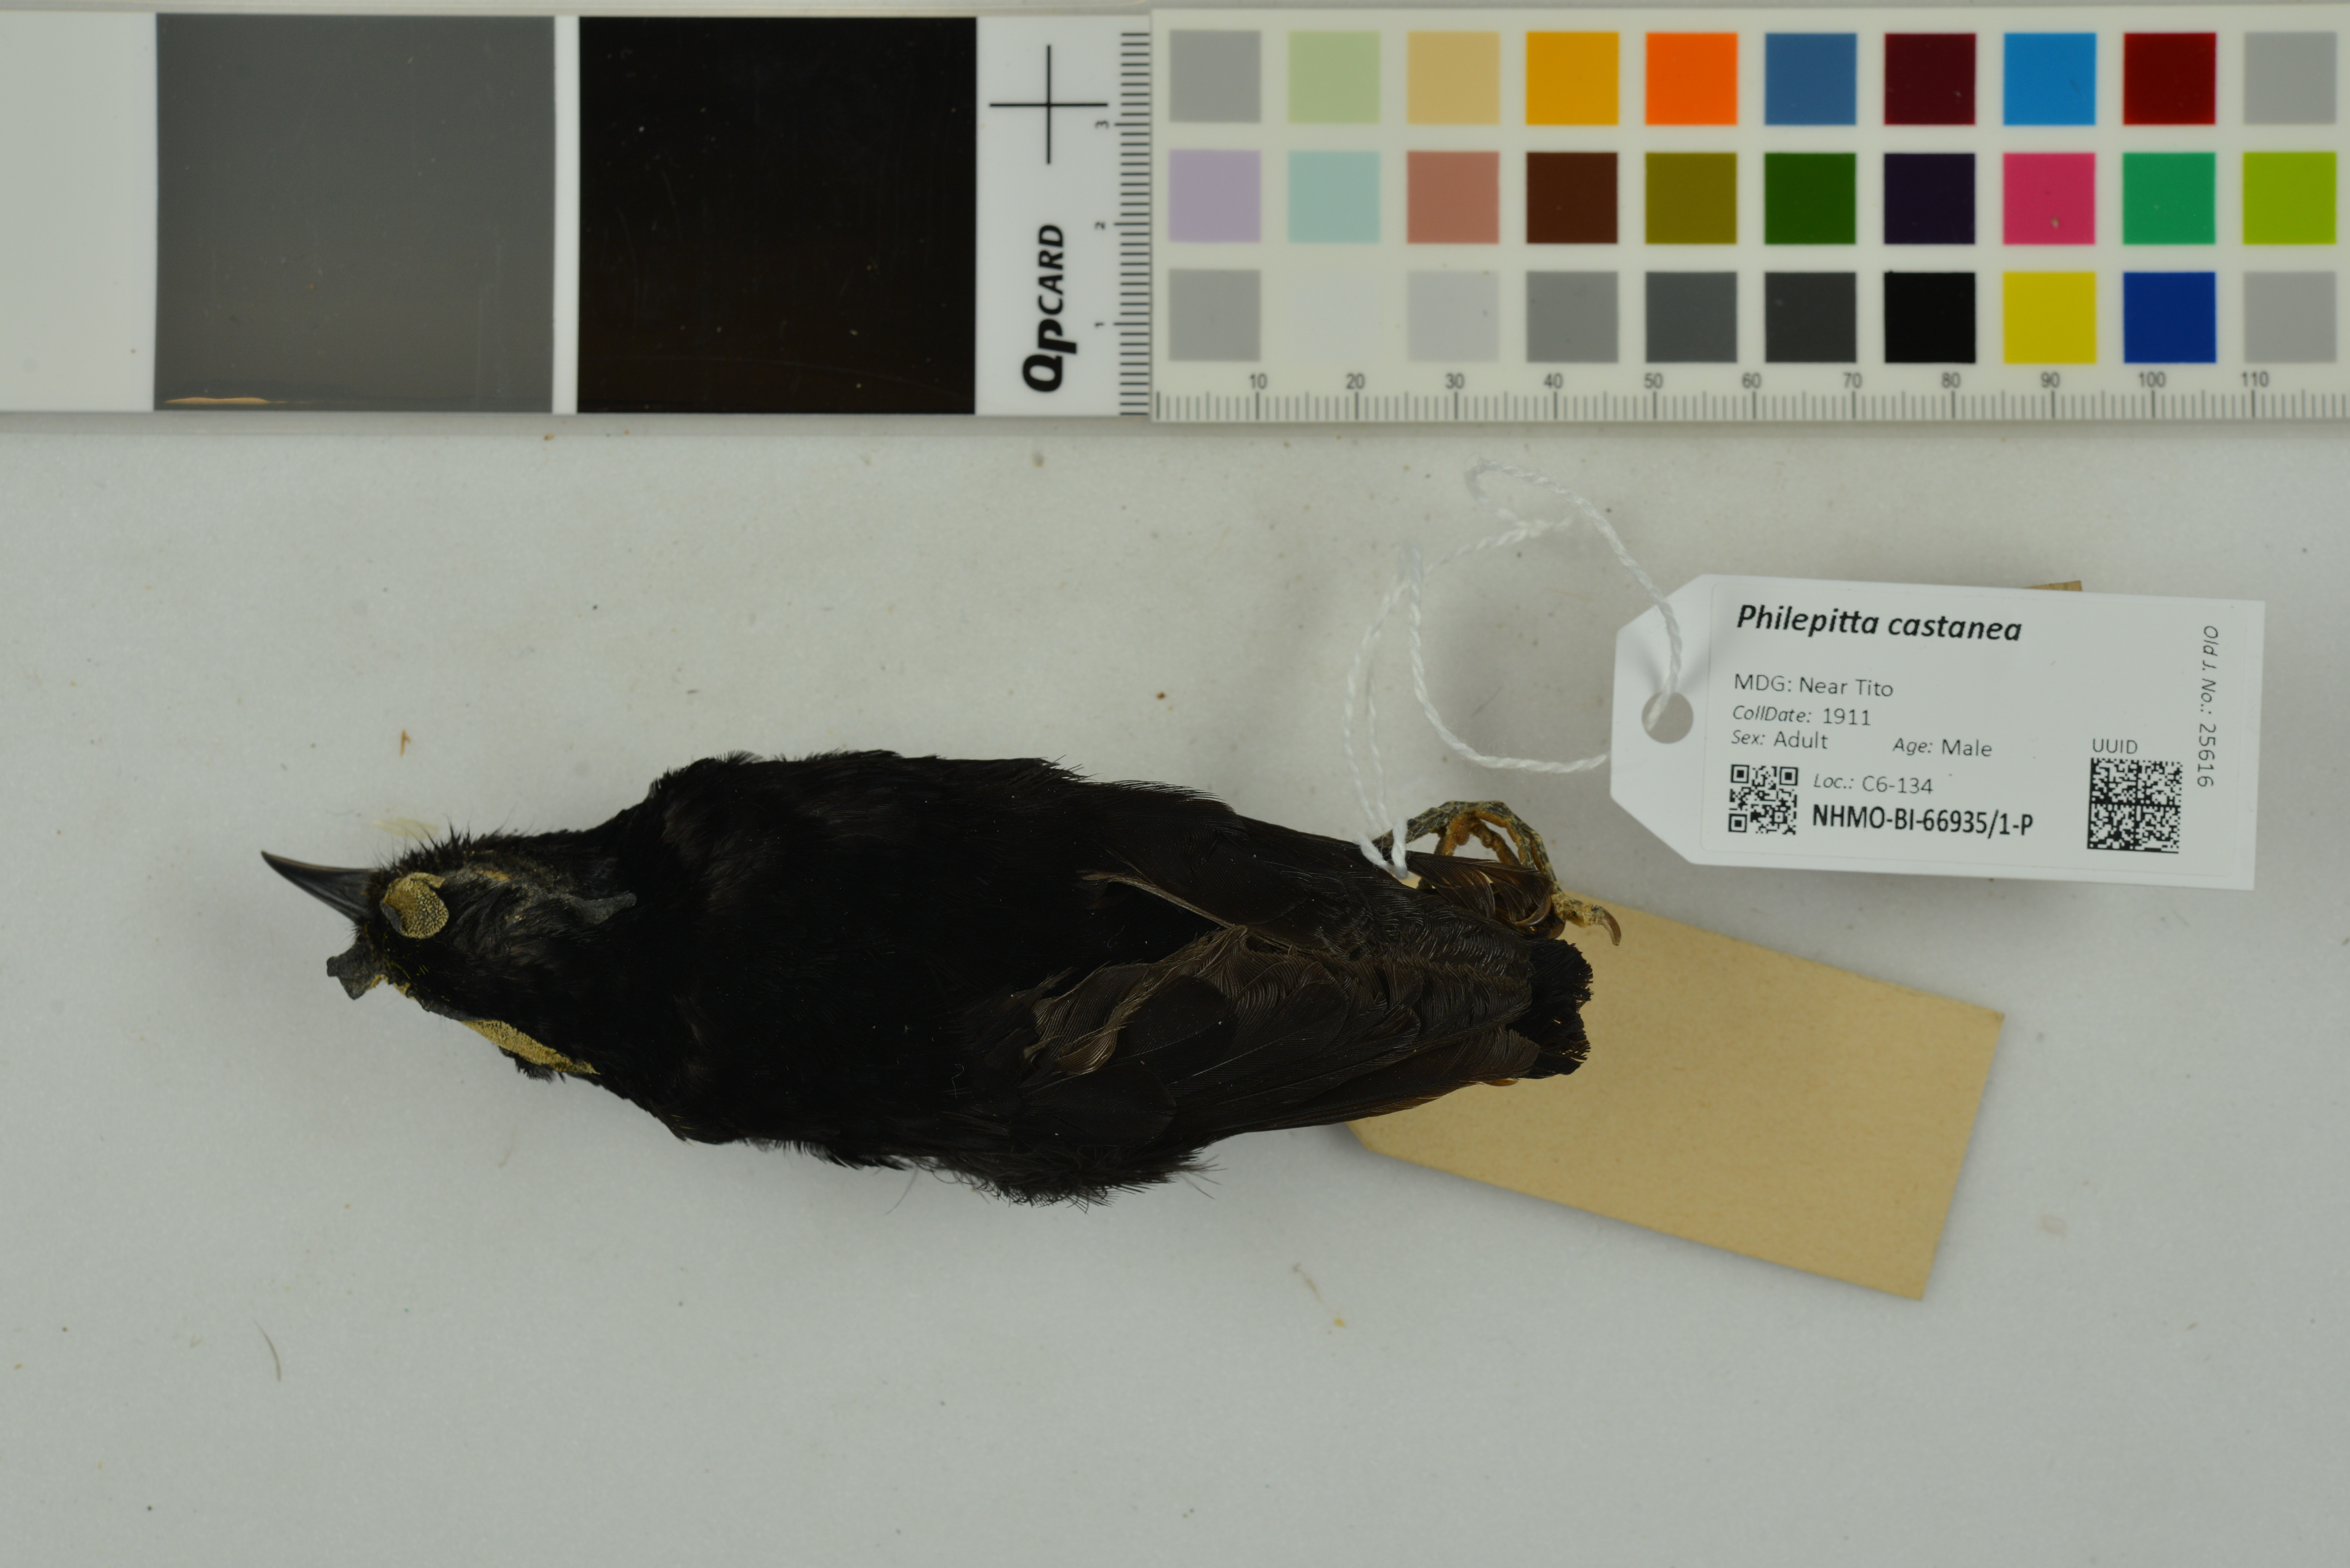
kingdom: Animalia
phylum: Chordata
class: Aves
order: Passeriformes
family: Philepittidae
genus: Philepitta
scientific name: Philepitta castanea
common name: Velvet asity
